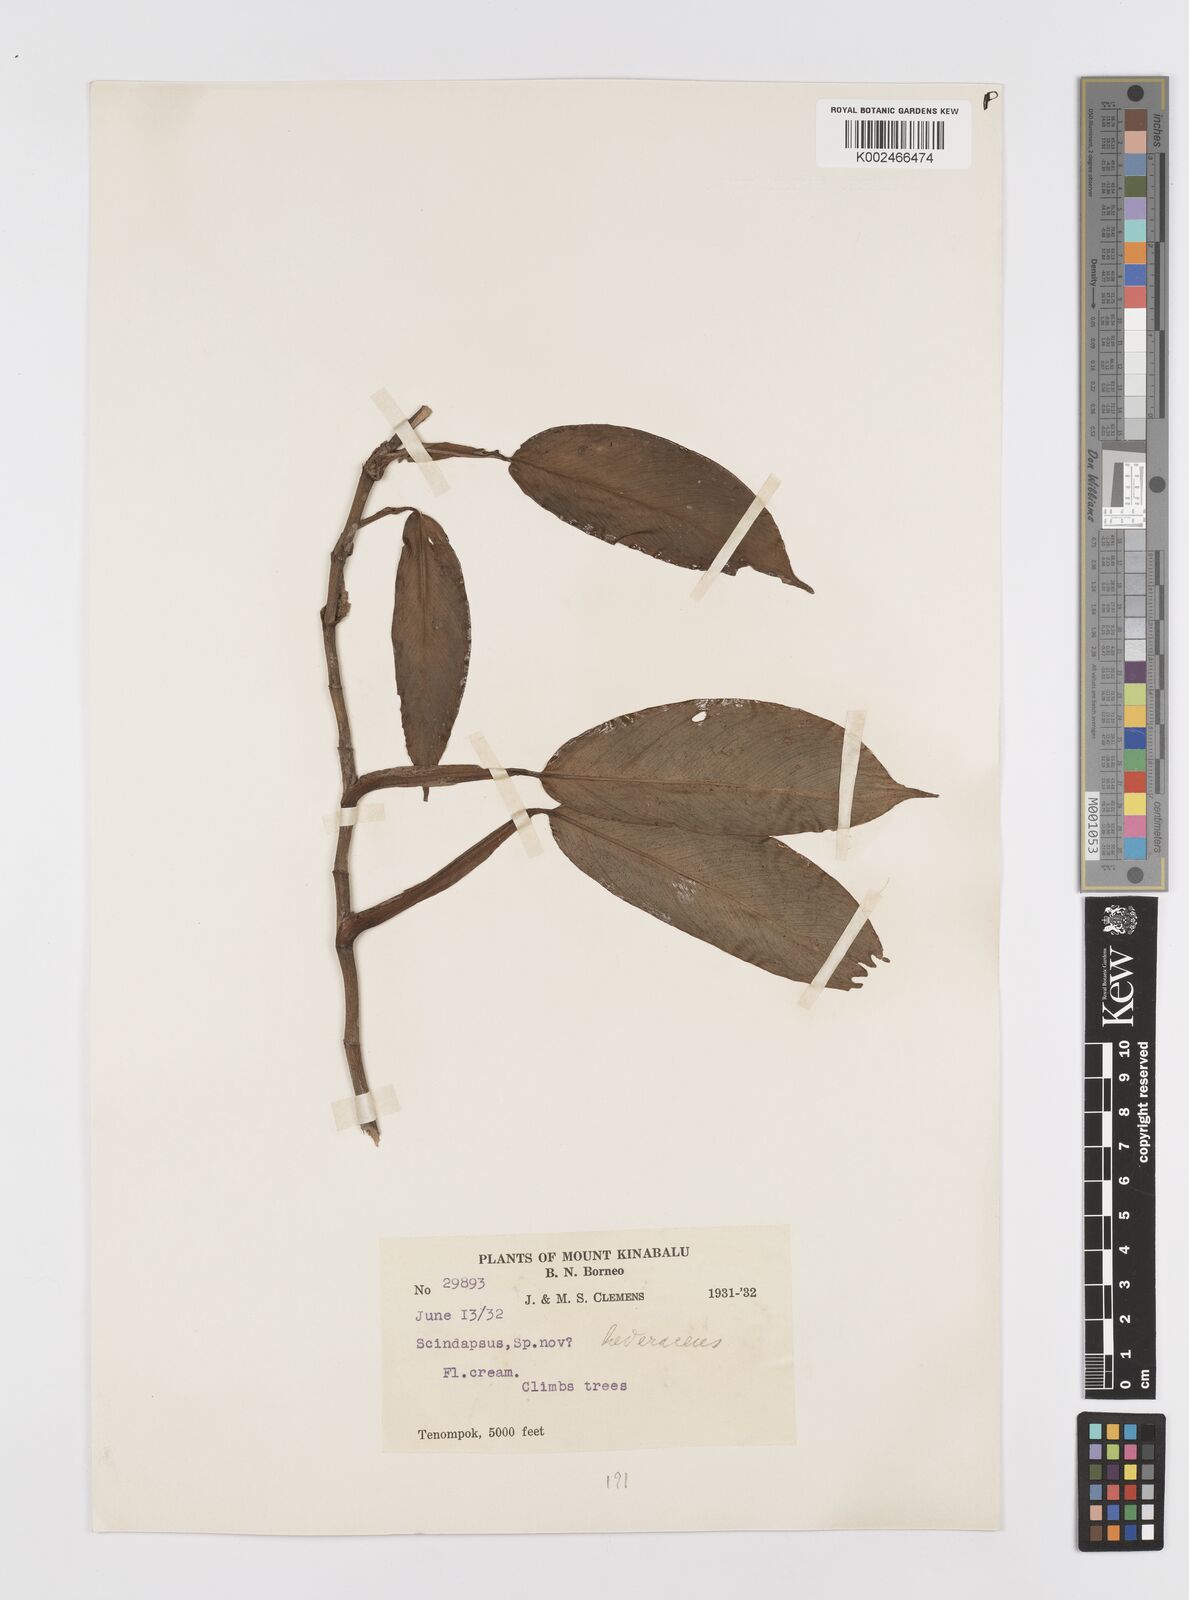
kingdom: Plantae
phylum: Tracheophyta
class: Liliopsida
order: Alismatales
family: Araceae
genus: Scindapsus
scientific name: Scindapsus curranii
